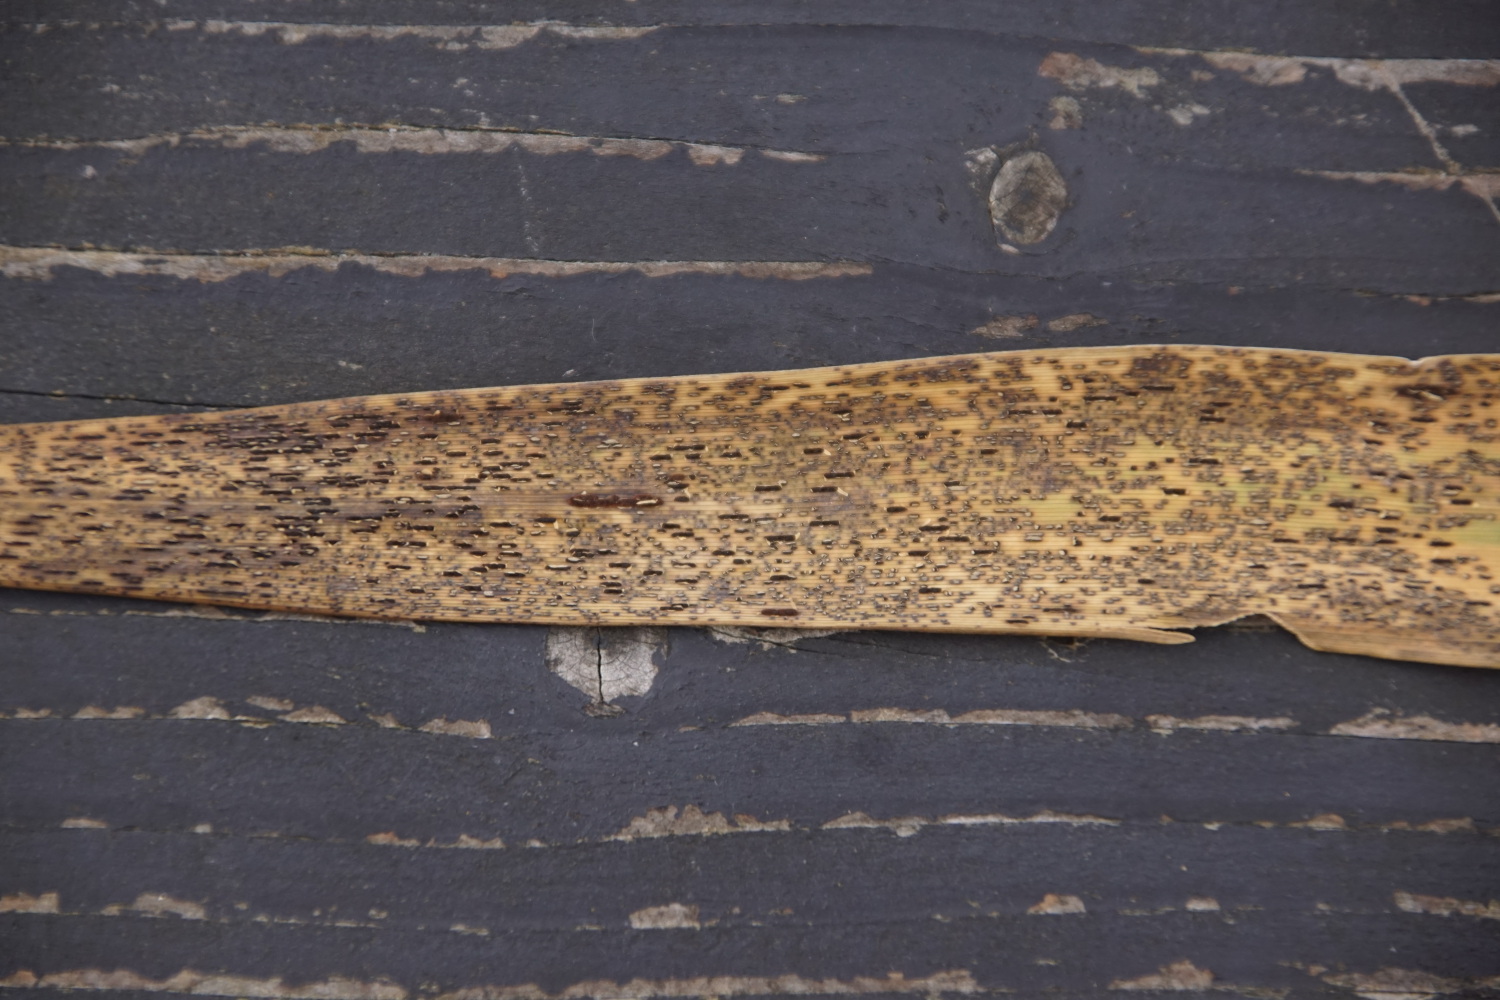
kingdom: Fungi
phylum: Basidiomycota
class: Pucciniomycetes
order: Pucciniales
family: Pucciniaceae
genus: Puccinia
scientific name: Puccinia
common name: tvecellerust
